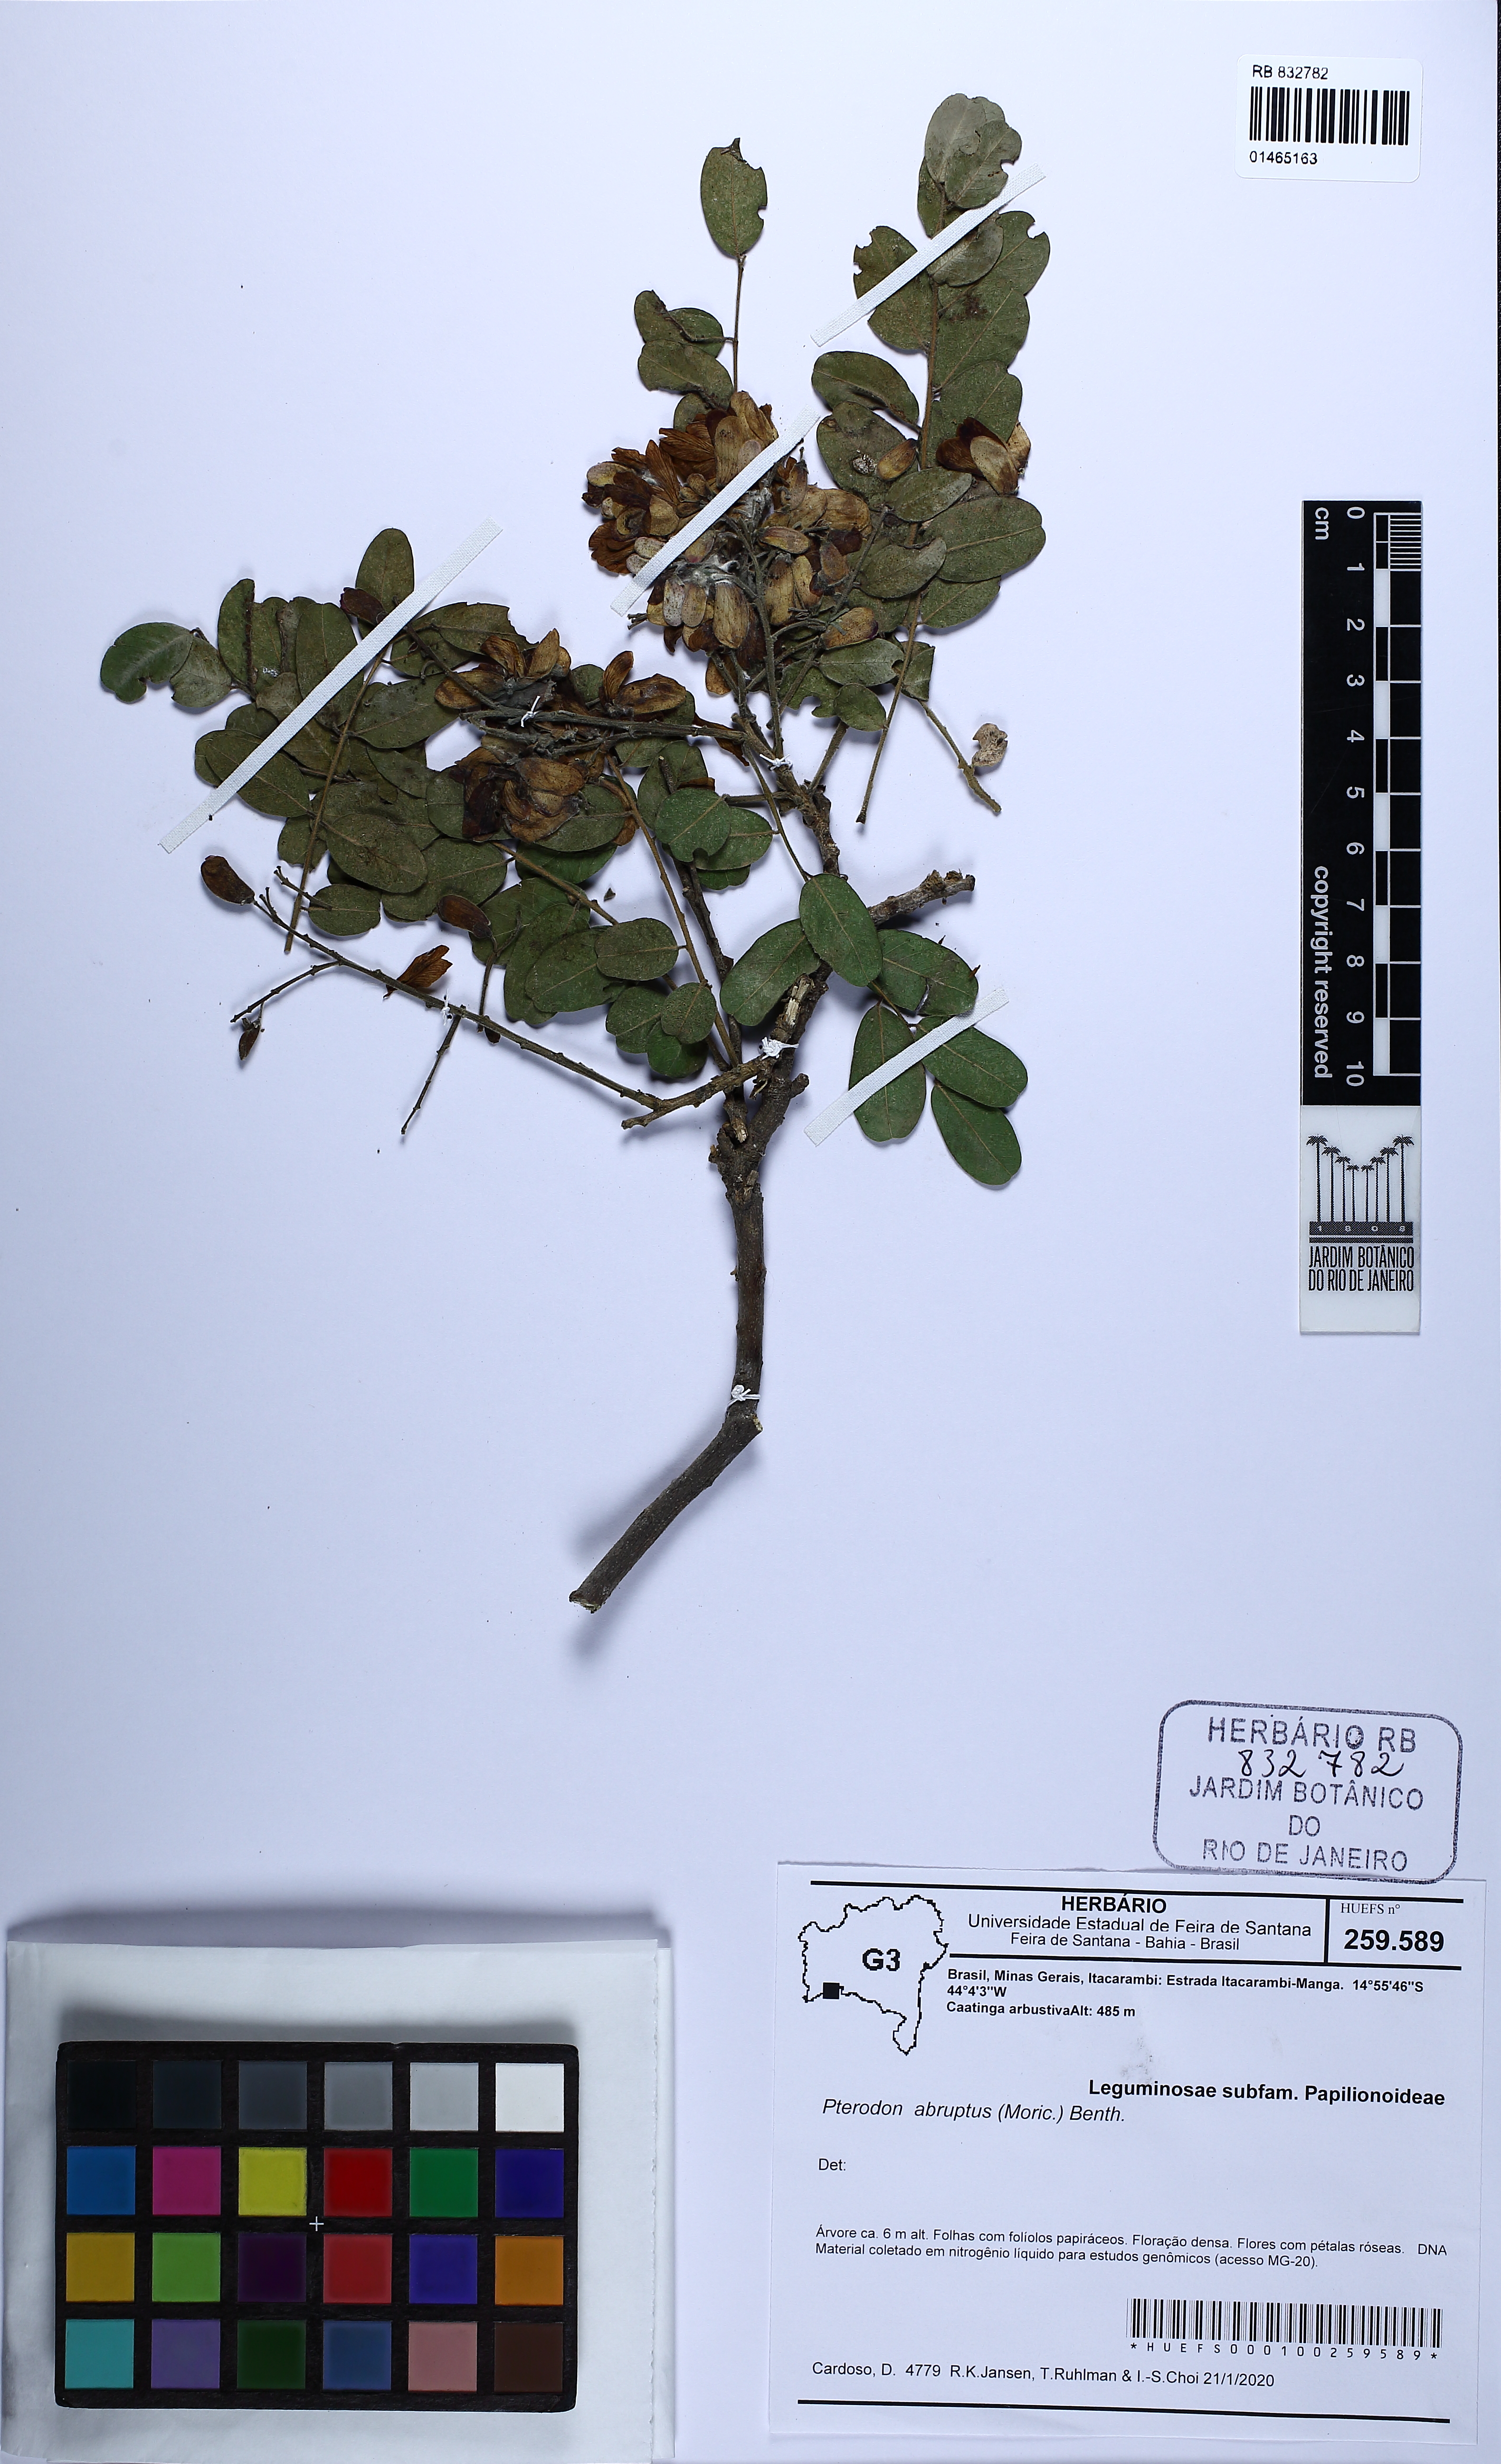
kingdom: Plantae
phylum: Tracheophyta
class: Magnoliopsida
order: Fabales
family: Fabaceae
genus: Pterodon
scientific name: Pterodon abruptus
